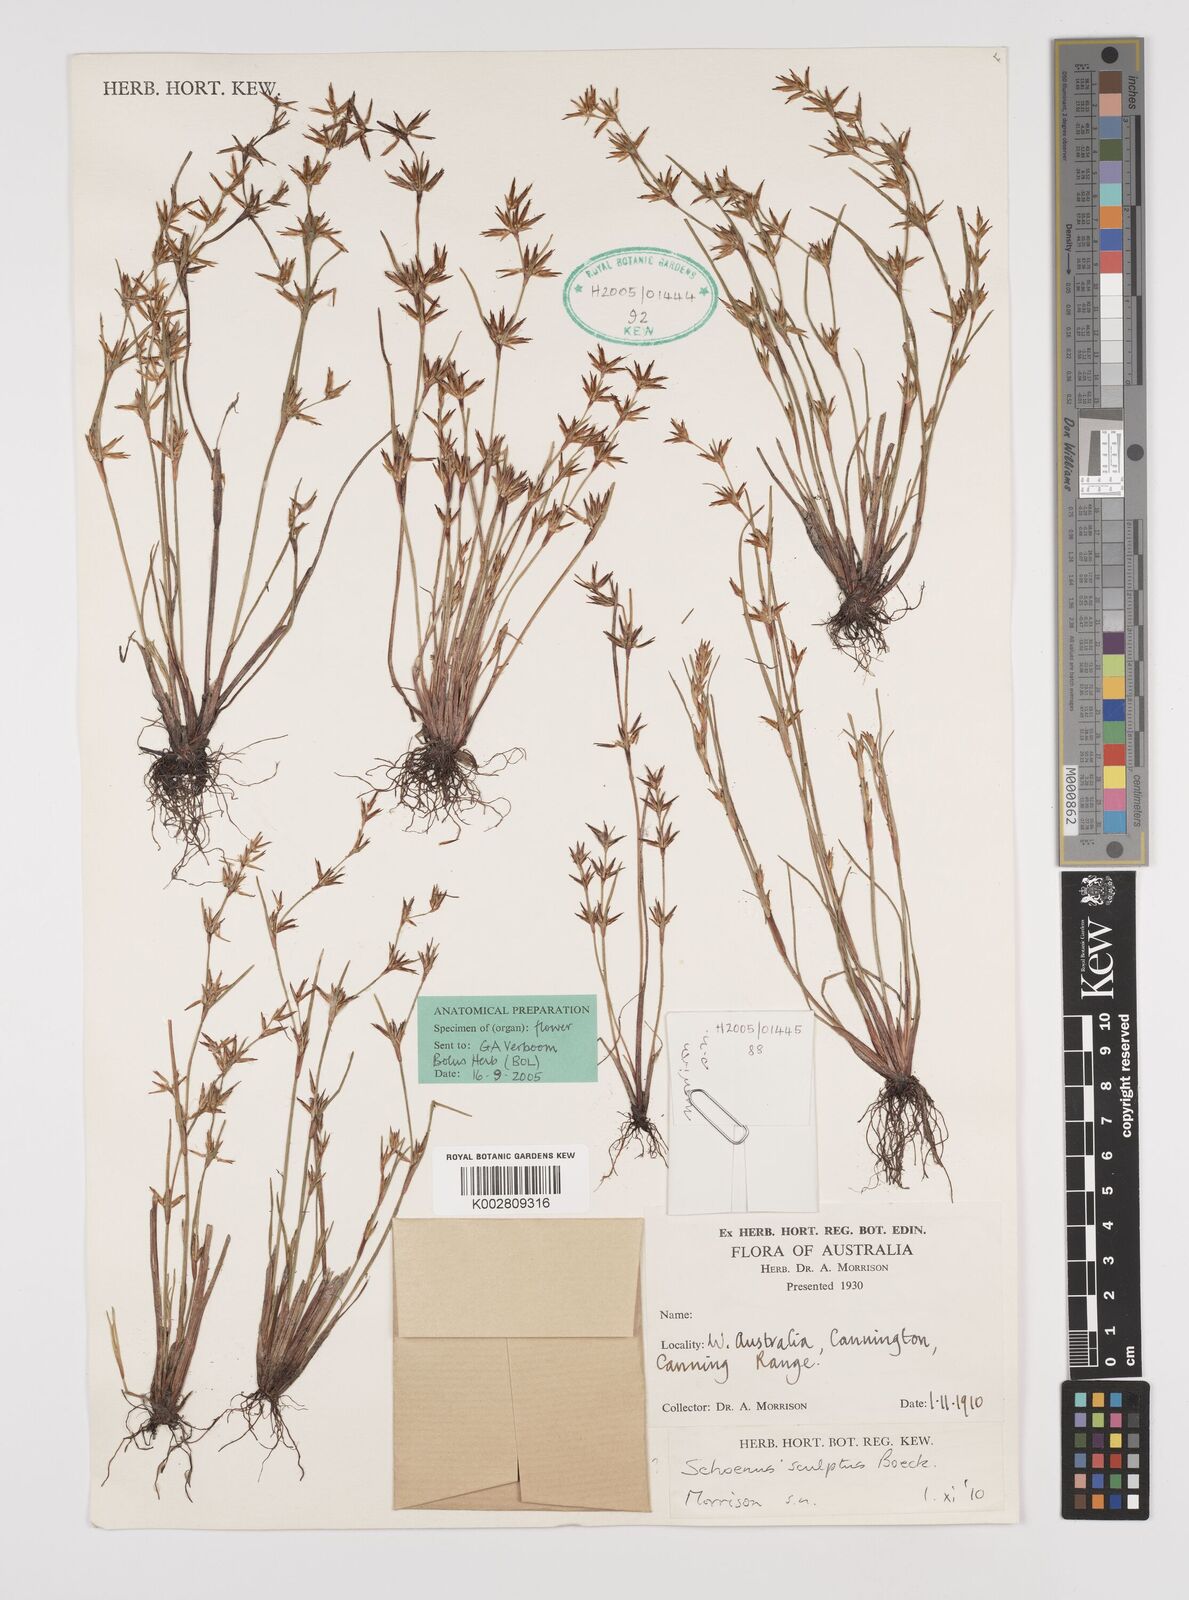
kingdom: Plantae
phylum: Tracheophyta
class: Liliopsida
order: Poales
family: Cyperaceae
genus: Schoenus
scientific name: Schoenus sculptus
